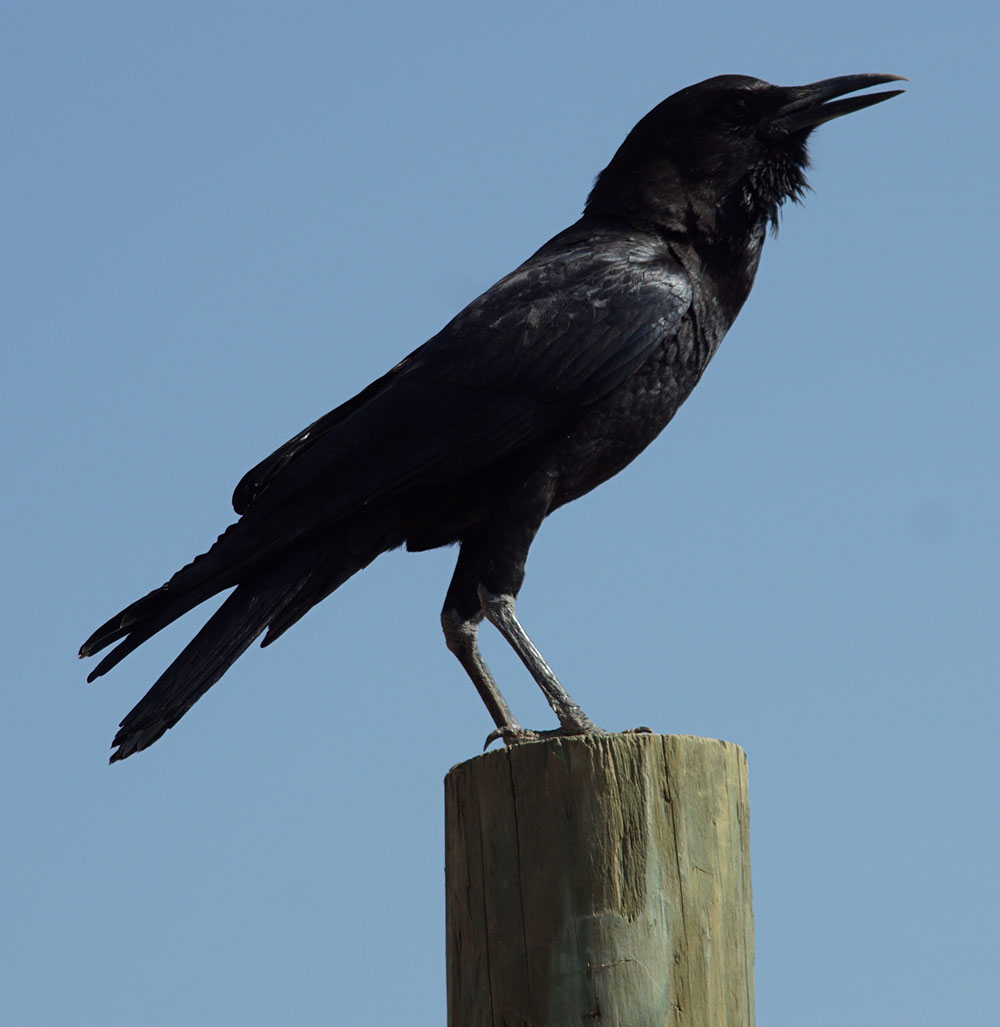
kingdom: Animalia
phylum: Chordata
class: Aves
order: Passeriformes
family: Corvidae
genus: Corvus
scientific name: Corvus capensis
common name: Cape crow
